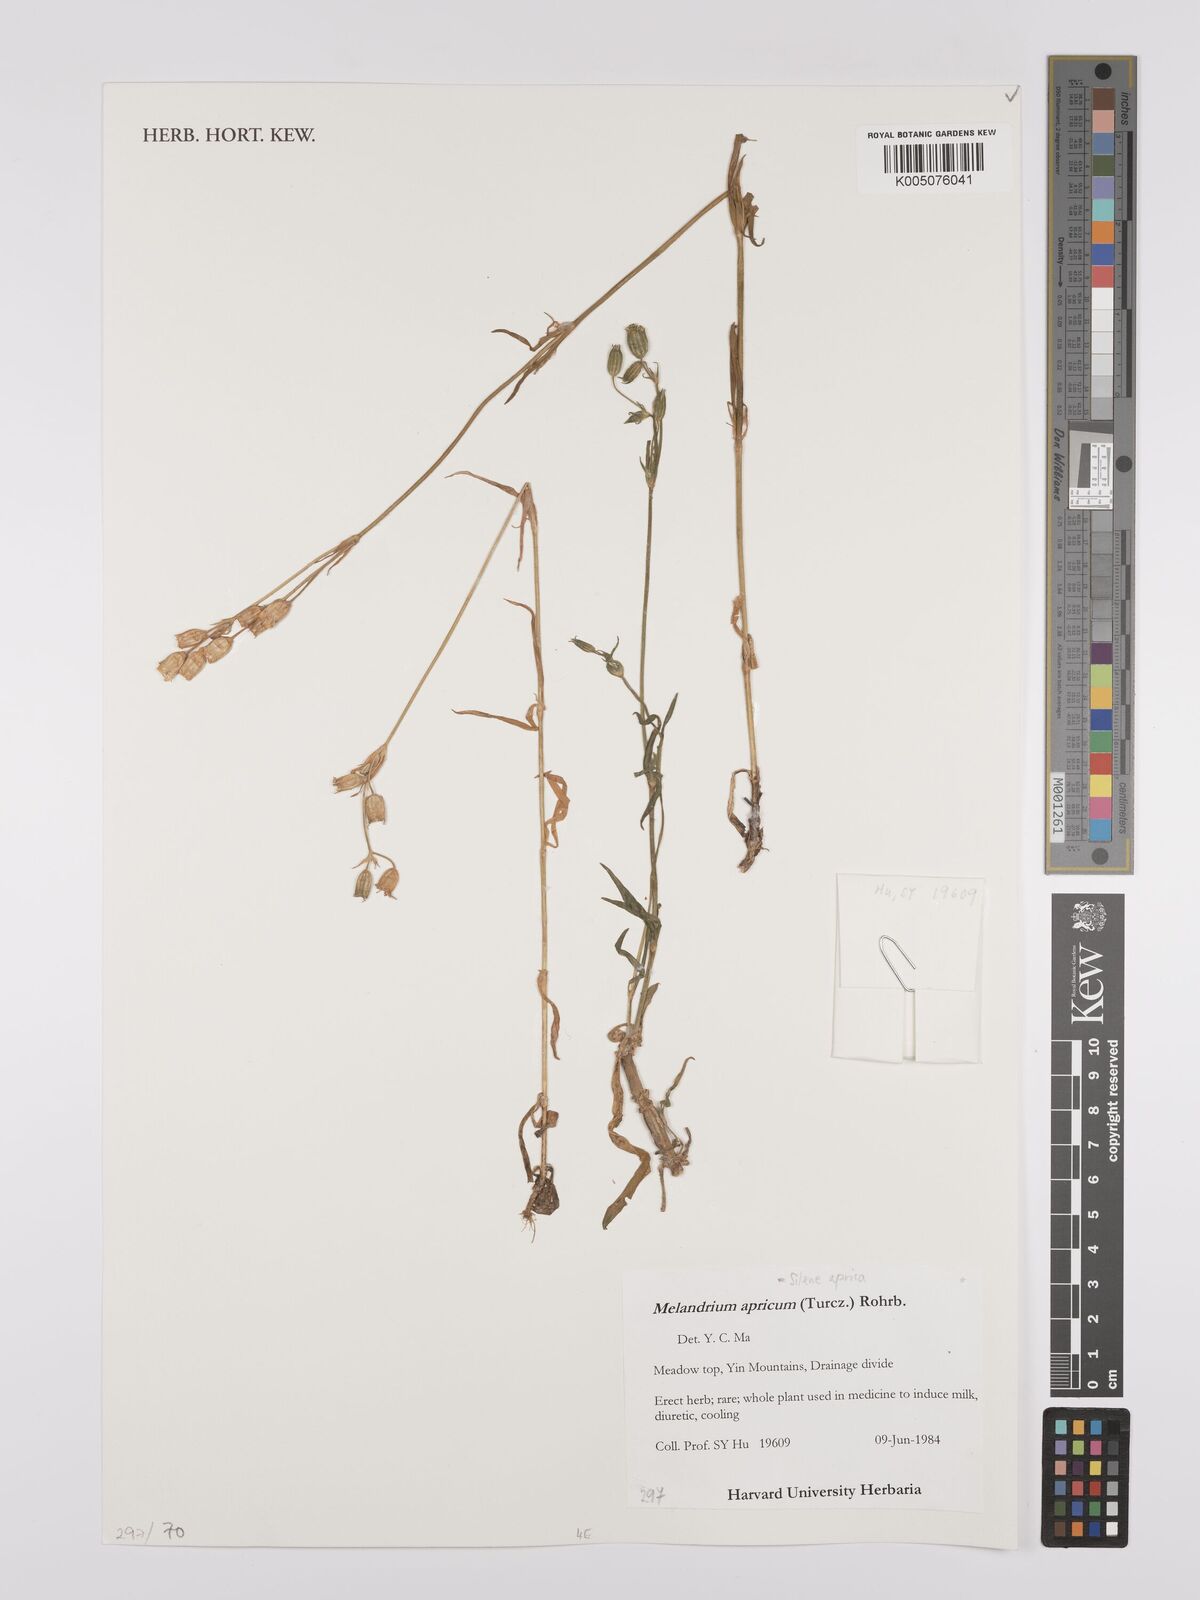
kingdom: Plantae
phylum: Tracheophyta
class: Magnoliopsida
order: Caryophyllales
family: Caryophyllaceae
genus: Silene
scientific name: Silene aprica
